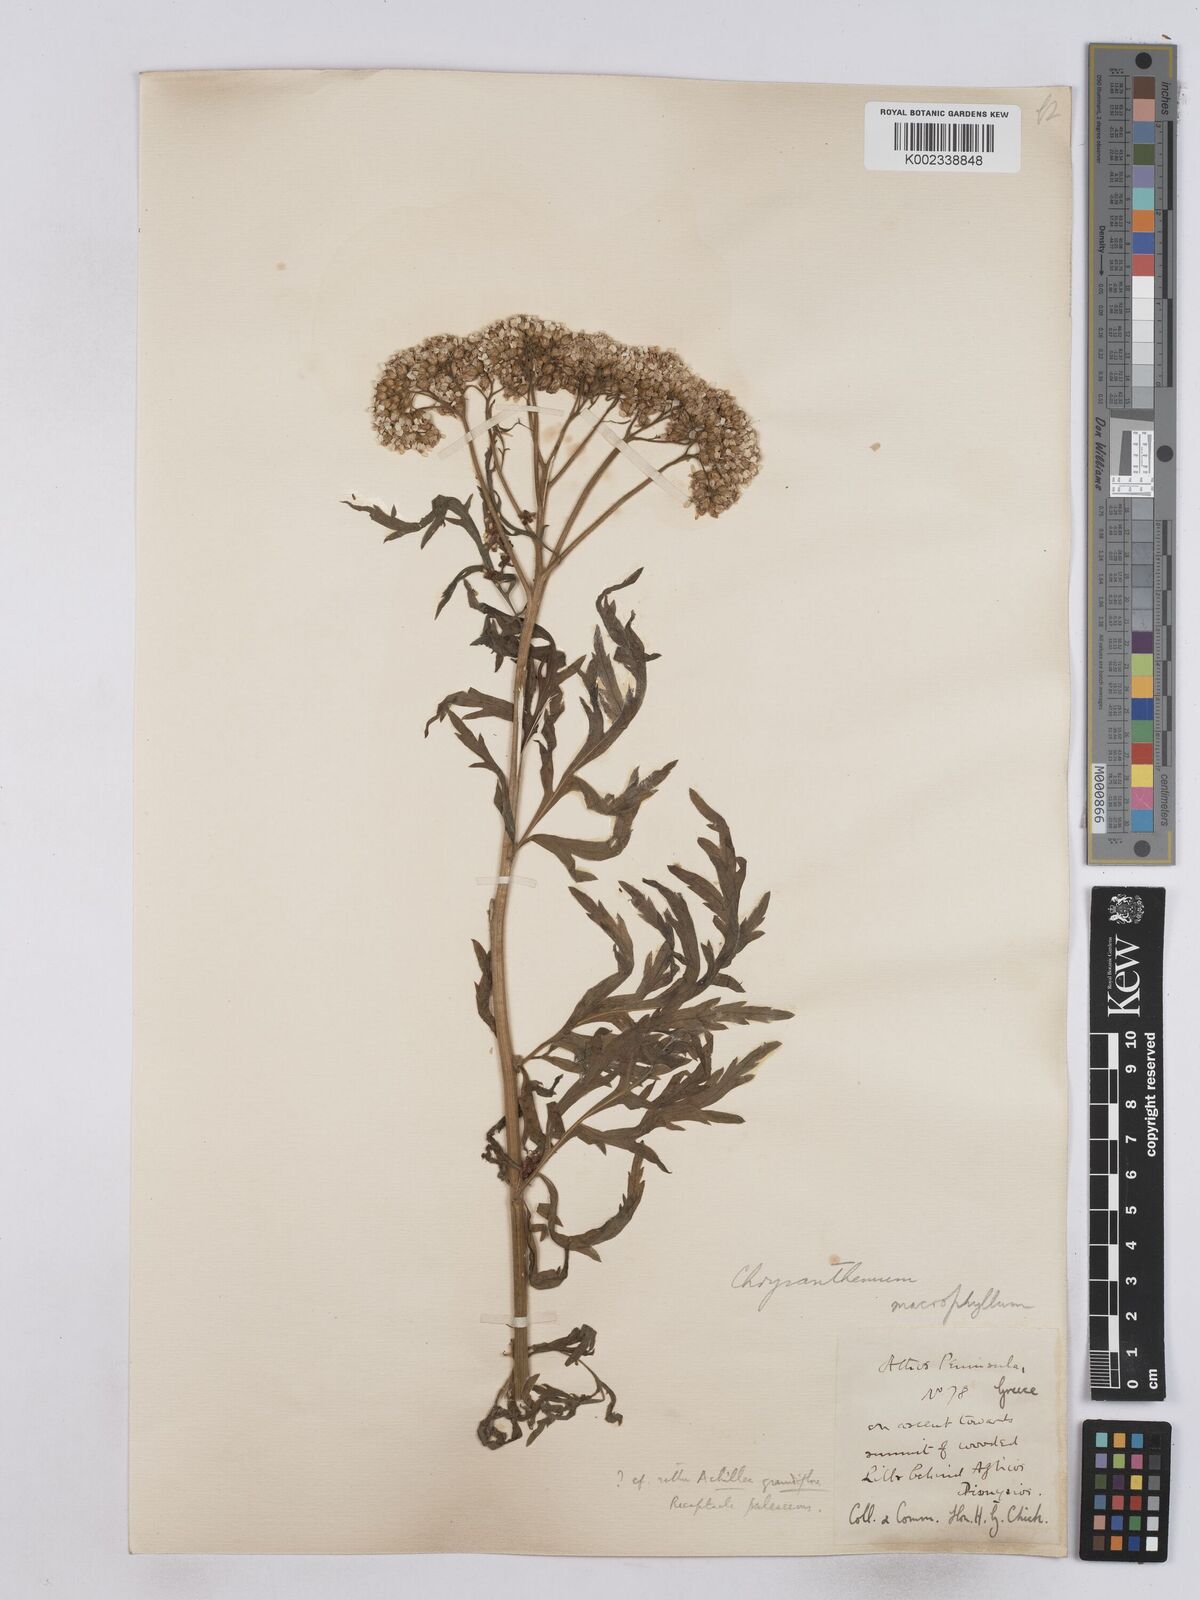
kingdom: Plantae
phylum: Tracheophyta
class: Magnoliopsida
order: Asterales
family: Asteraceae
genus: Tanacetum
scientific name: Tanacetum macrophyllum
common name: Rayed tansy
